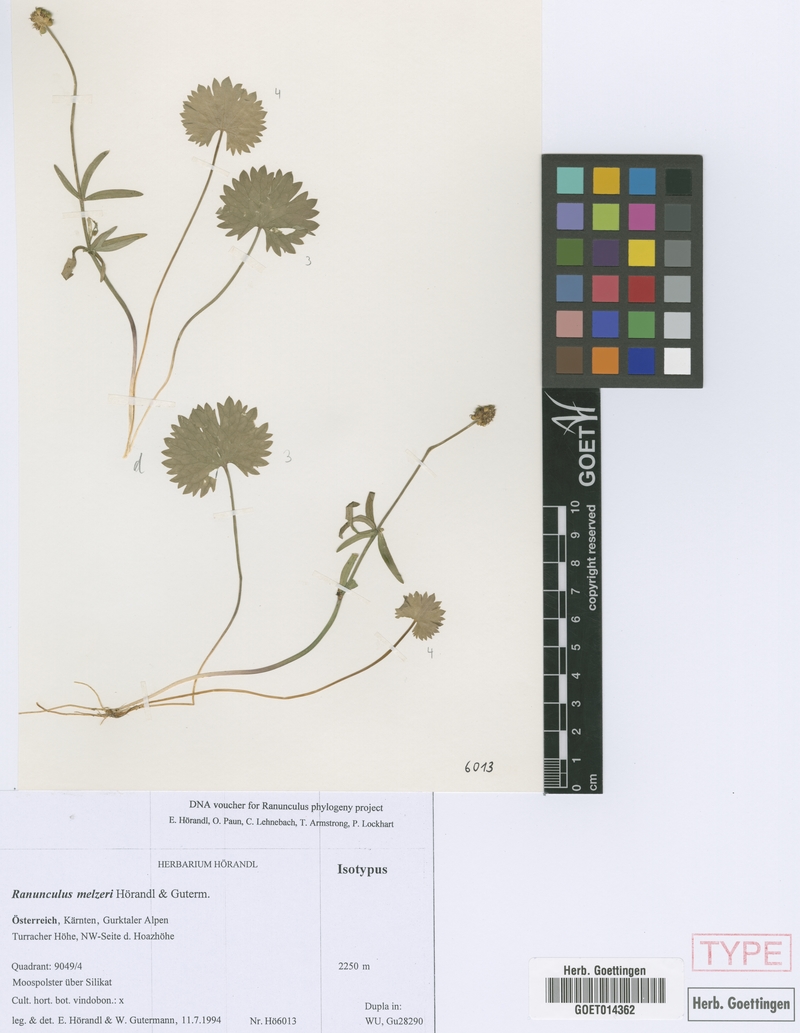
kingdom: Plantae
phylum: Tracheophyta
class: Magnoliopsida
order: Ranunculales
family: Ranunculaceae
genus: Ranunculus
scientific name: Ranunculus melzeri
